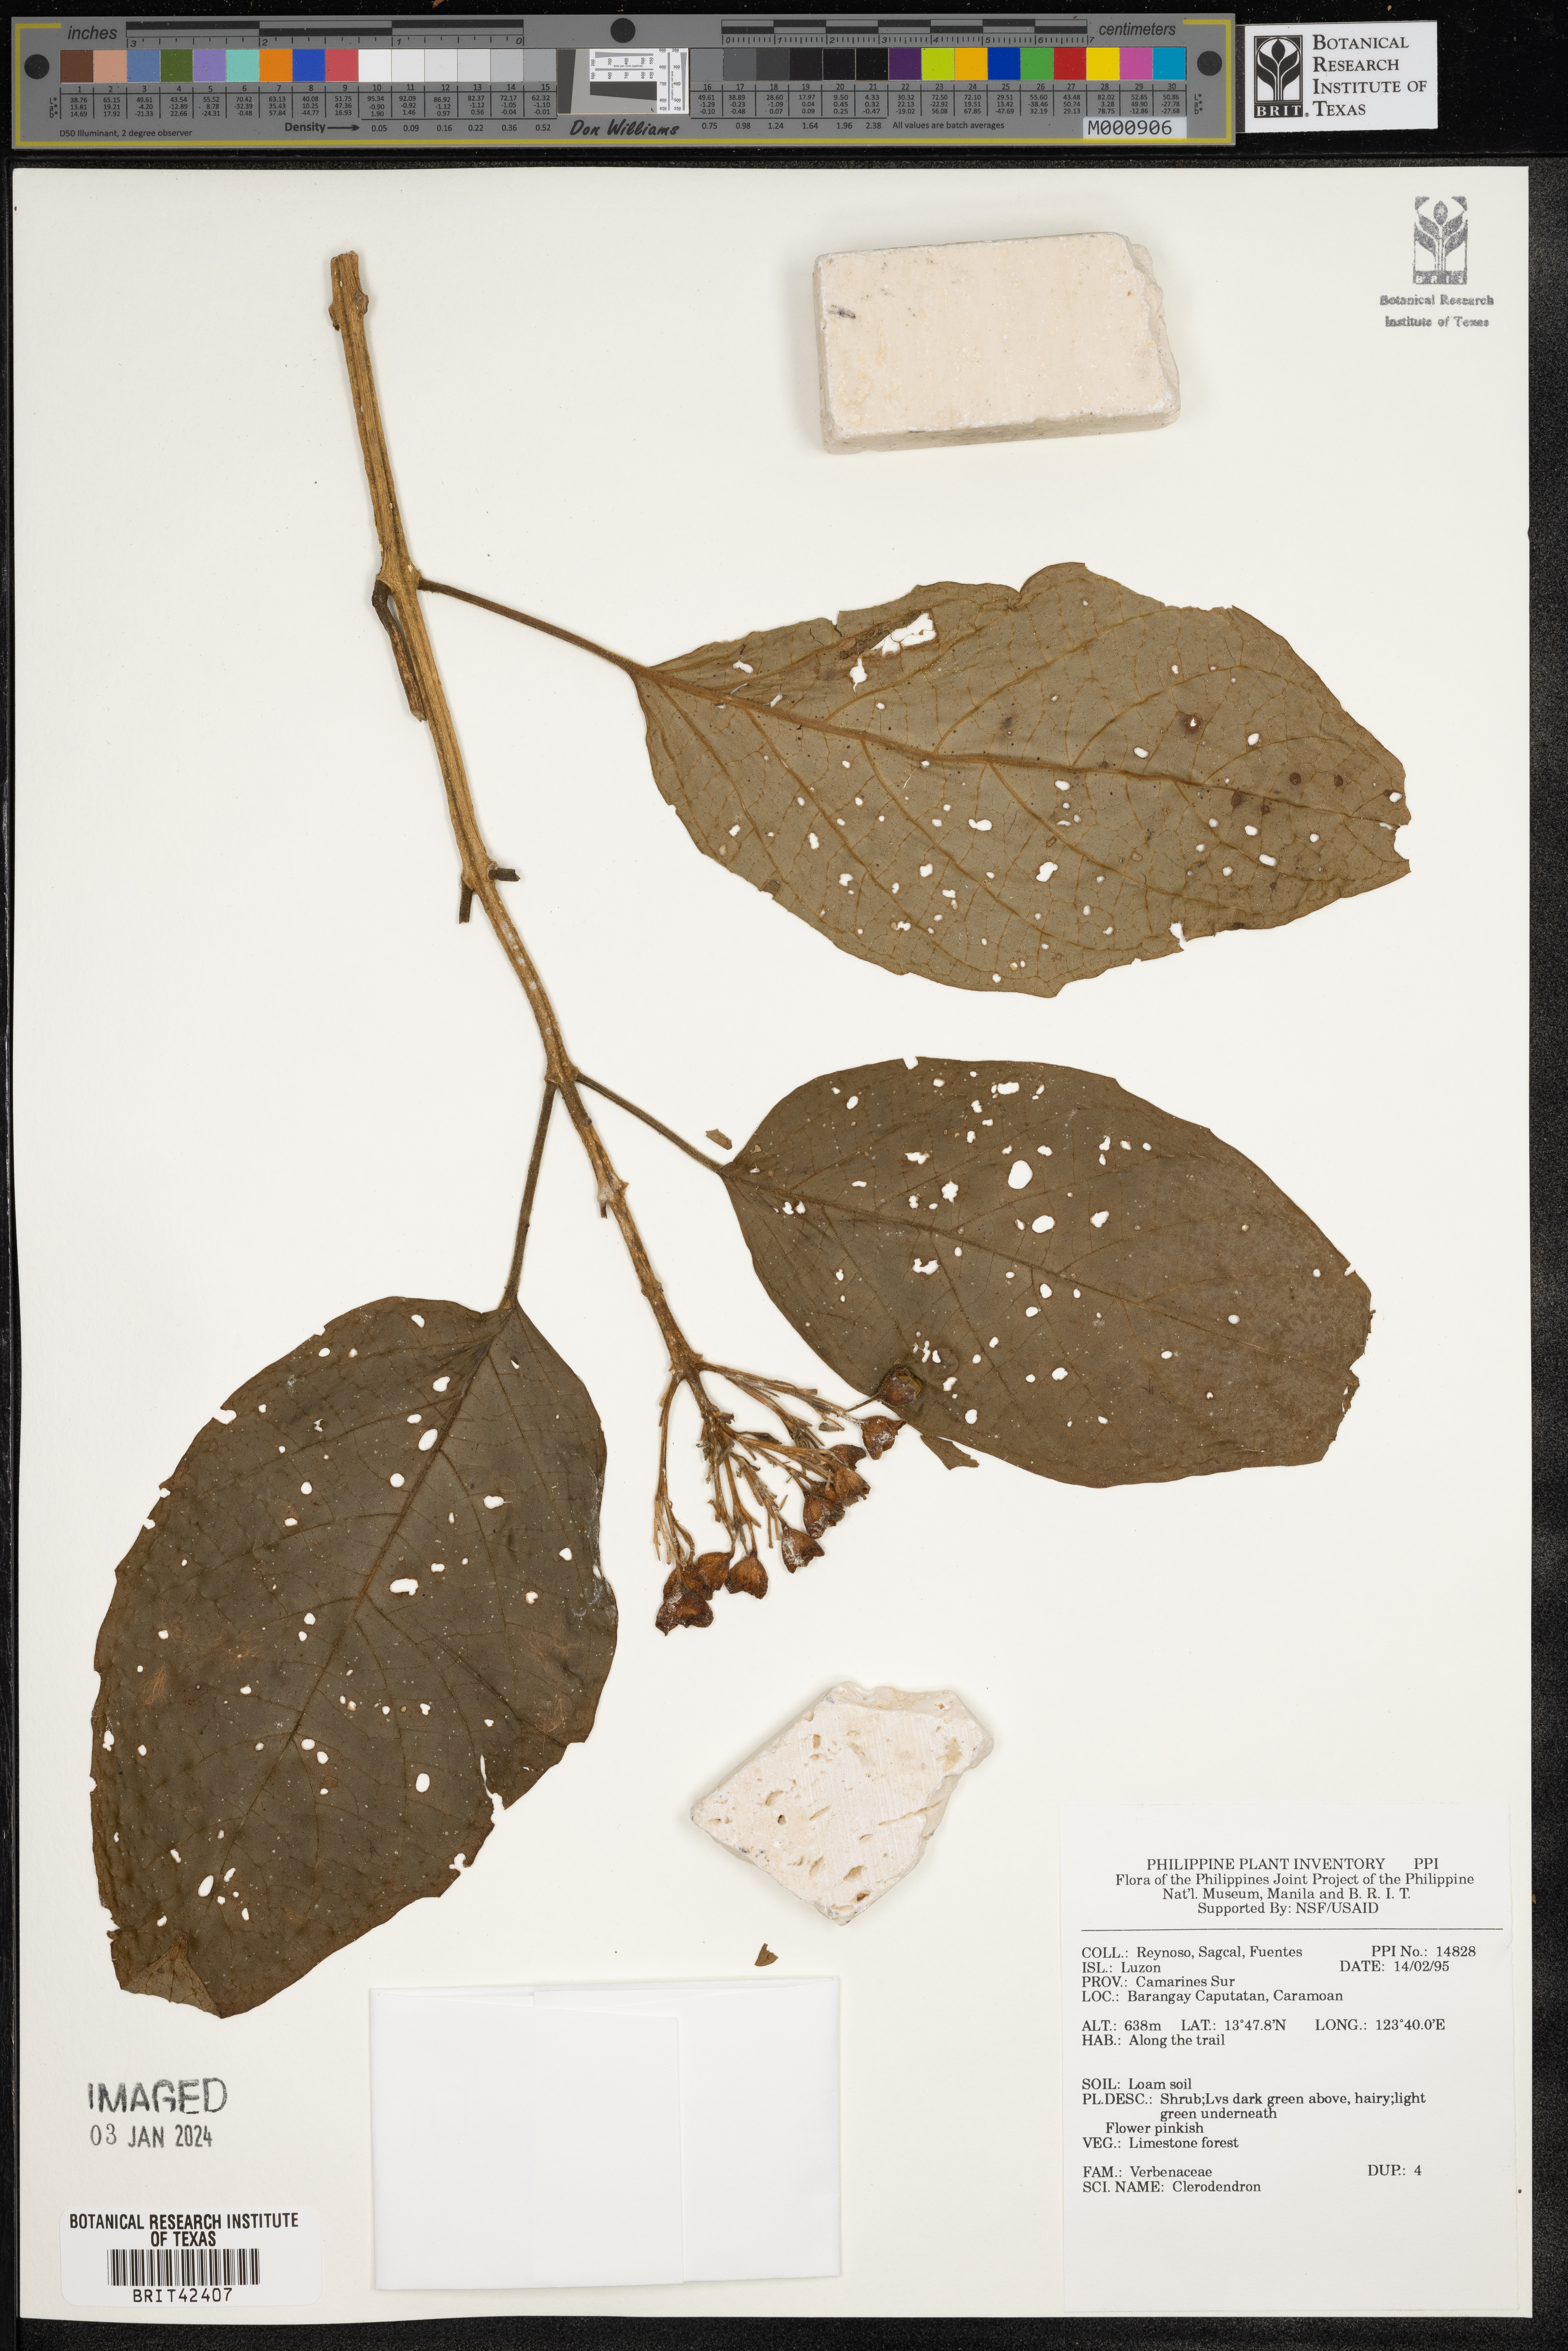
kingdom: Plantae
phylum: Tracheophyta
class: Magnoliopsida
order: Lamiales
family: Lamiaceae
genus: Clerodendrum
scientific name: Clerodendrum
